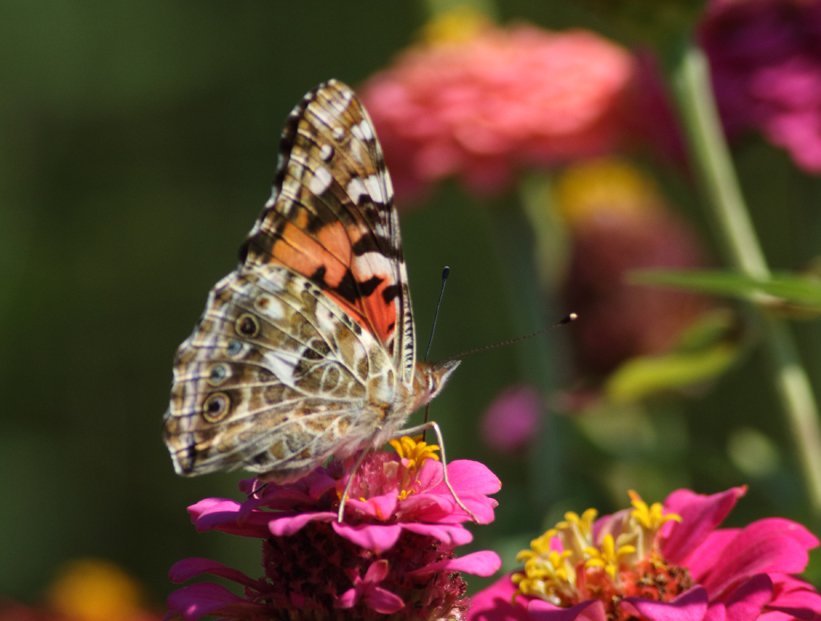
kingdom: Animalia
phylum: Arthropoda
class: Insecta
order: Lepidoptera
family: Nymphalidae
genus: Vanessa
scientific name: Vanessa cardui
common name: Painted Lady
